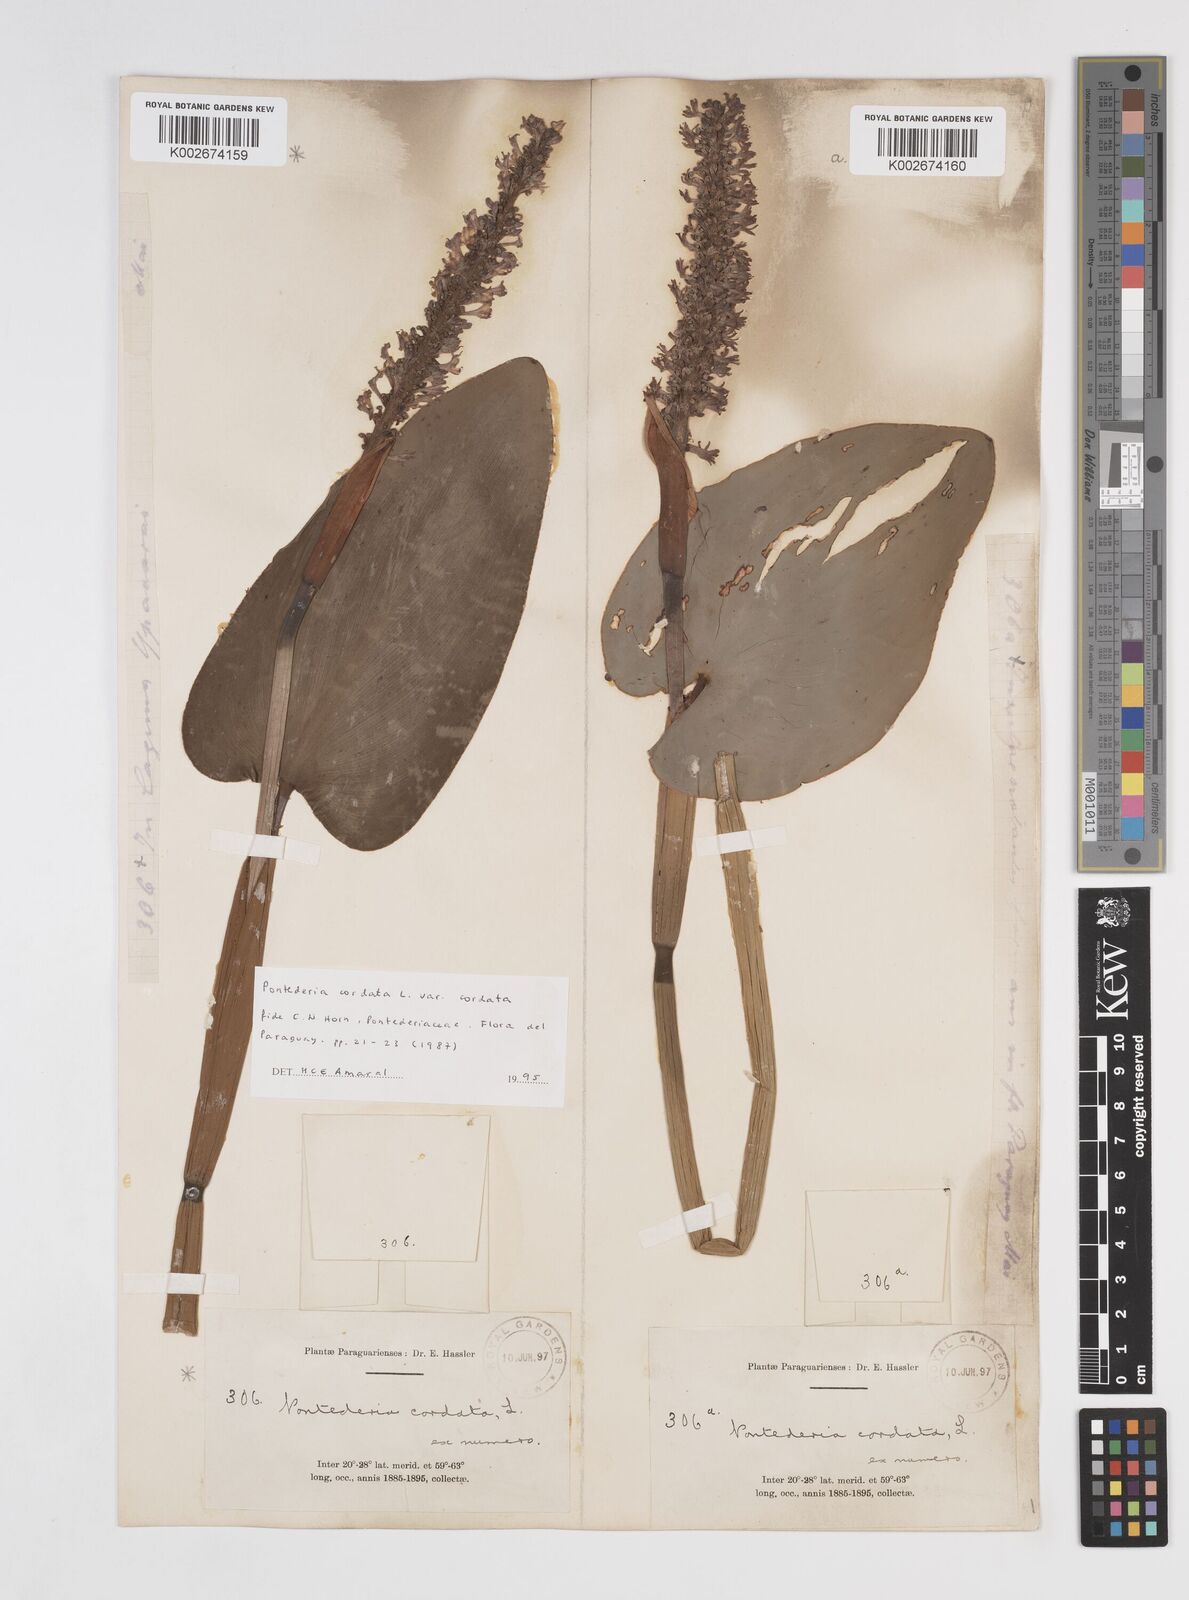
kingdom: Plantae
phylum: Tracheophyta
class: Liliopsida
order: Commelinales
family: Pontederiaceae
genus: Pontederia
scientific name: Pontederia
